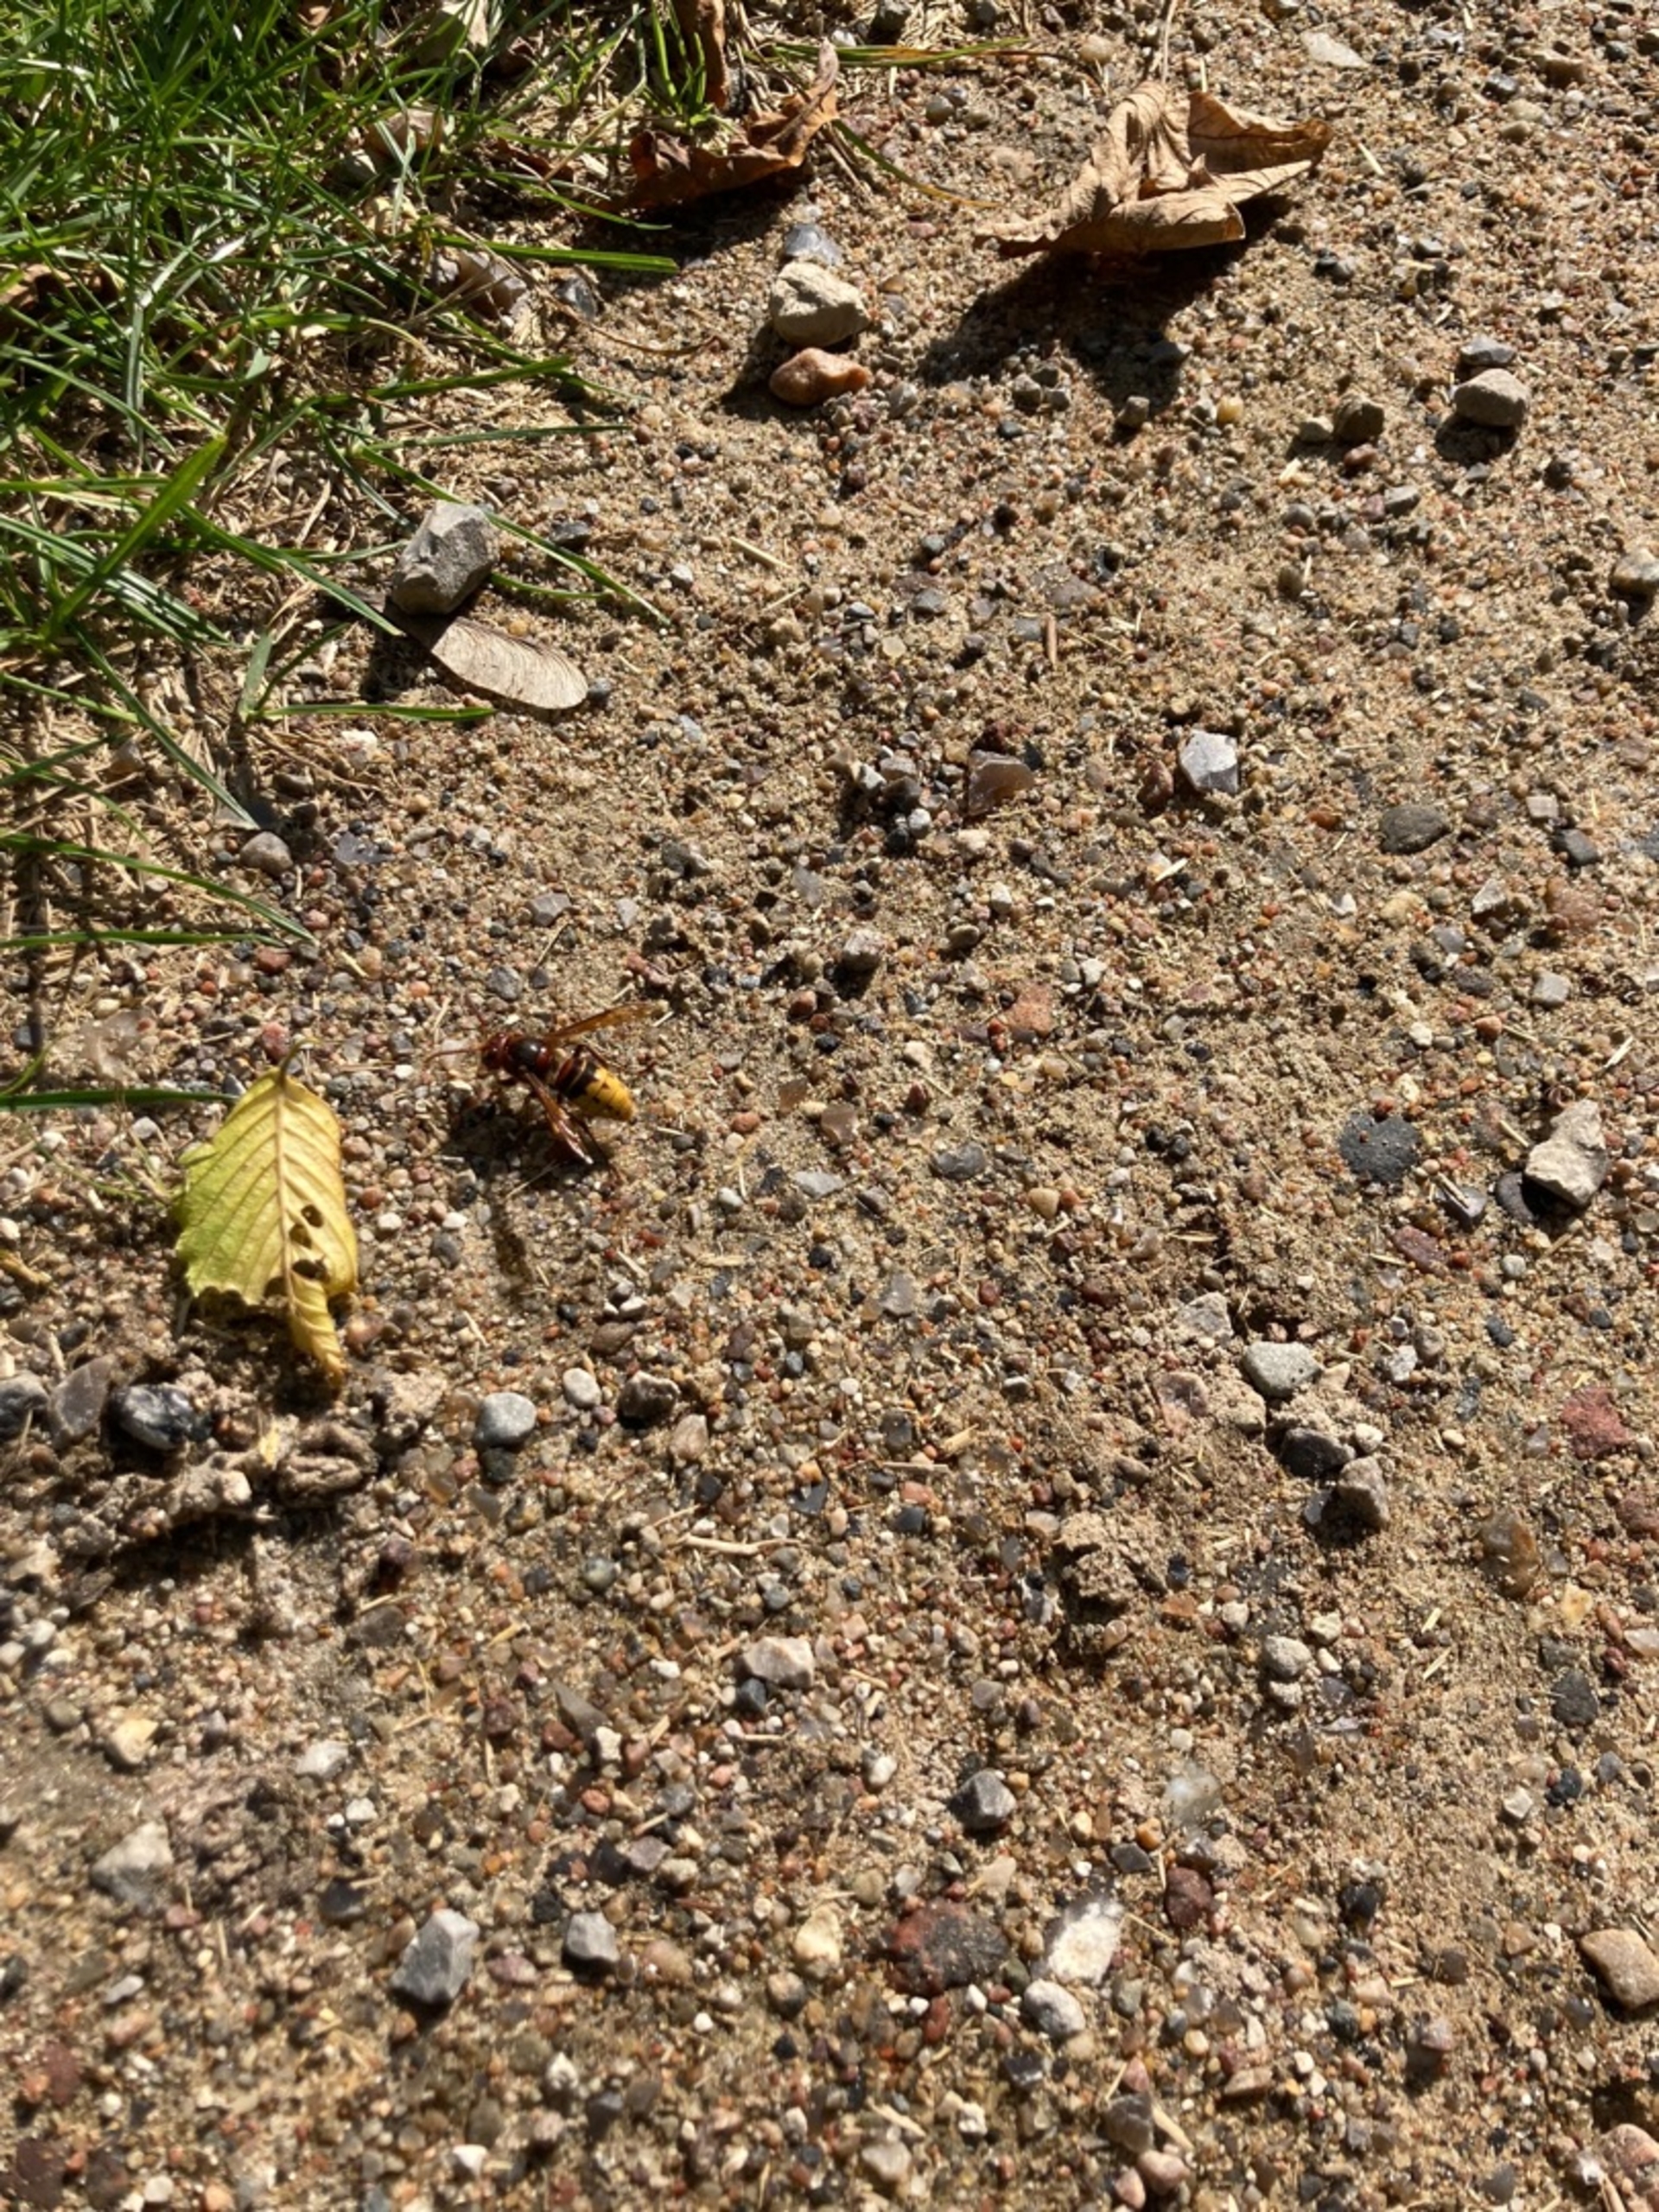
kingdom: Animalia
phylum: Arthropoda
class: Insecta
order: Hymenoptera
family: Vespidae
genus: Vespa
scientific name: Vespa crabro
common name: Stor gedehams
